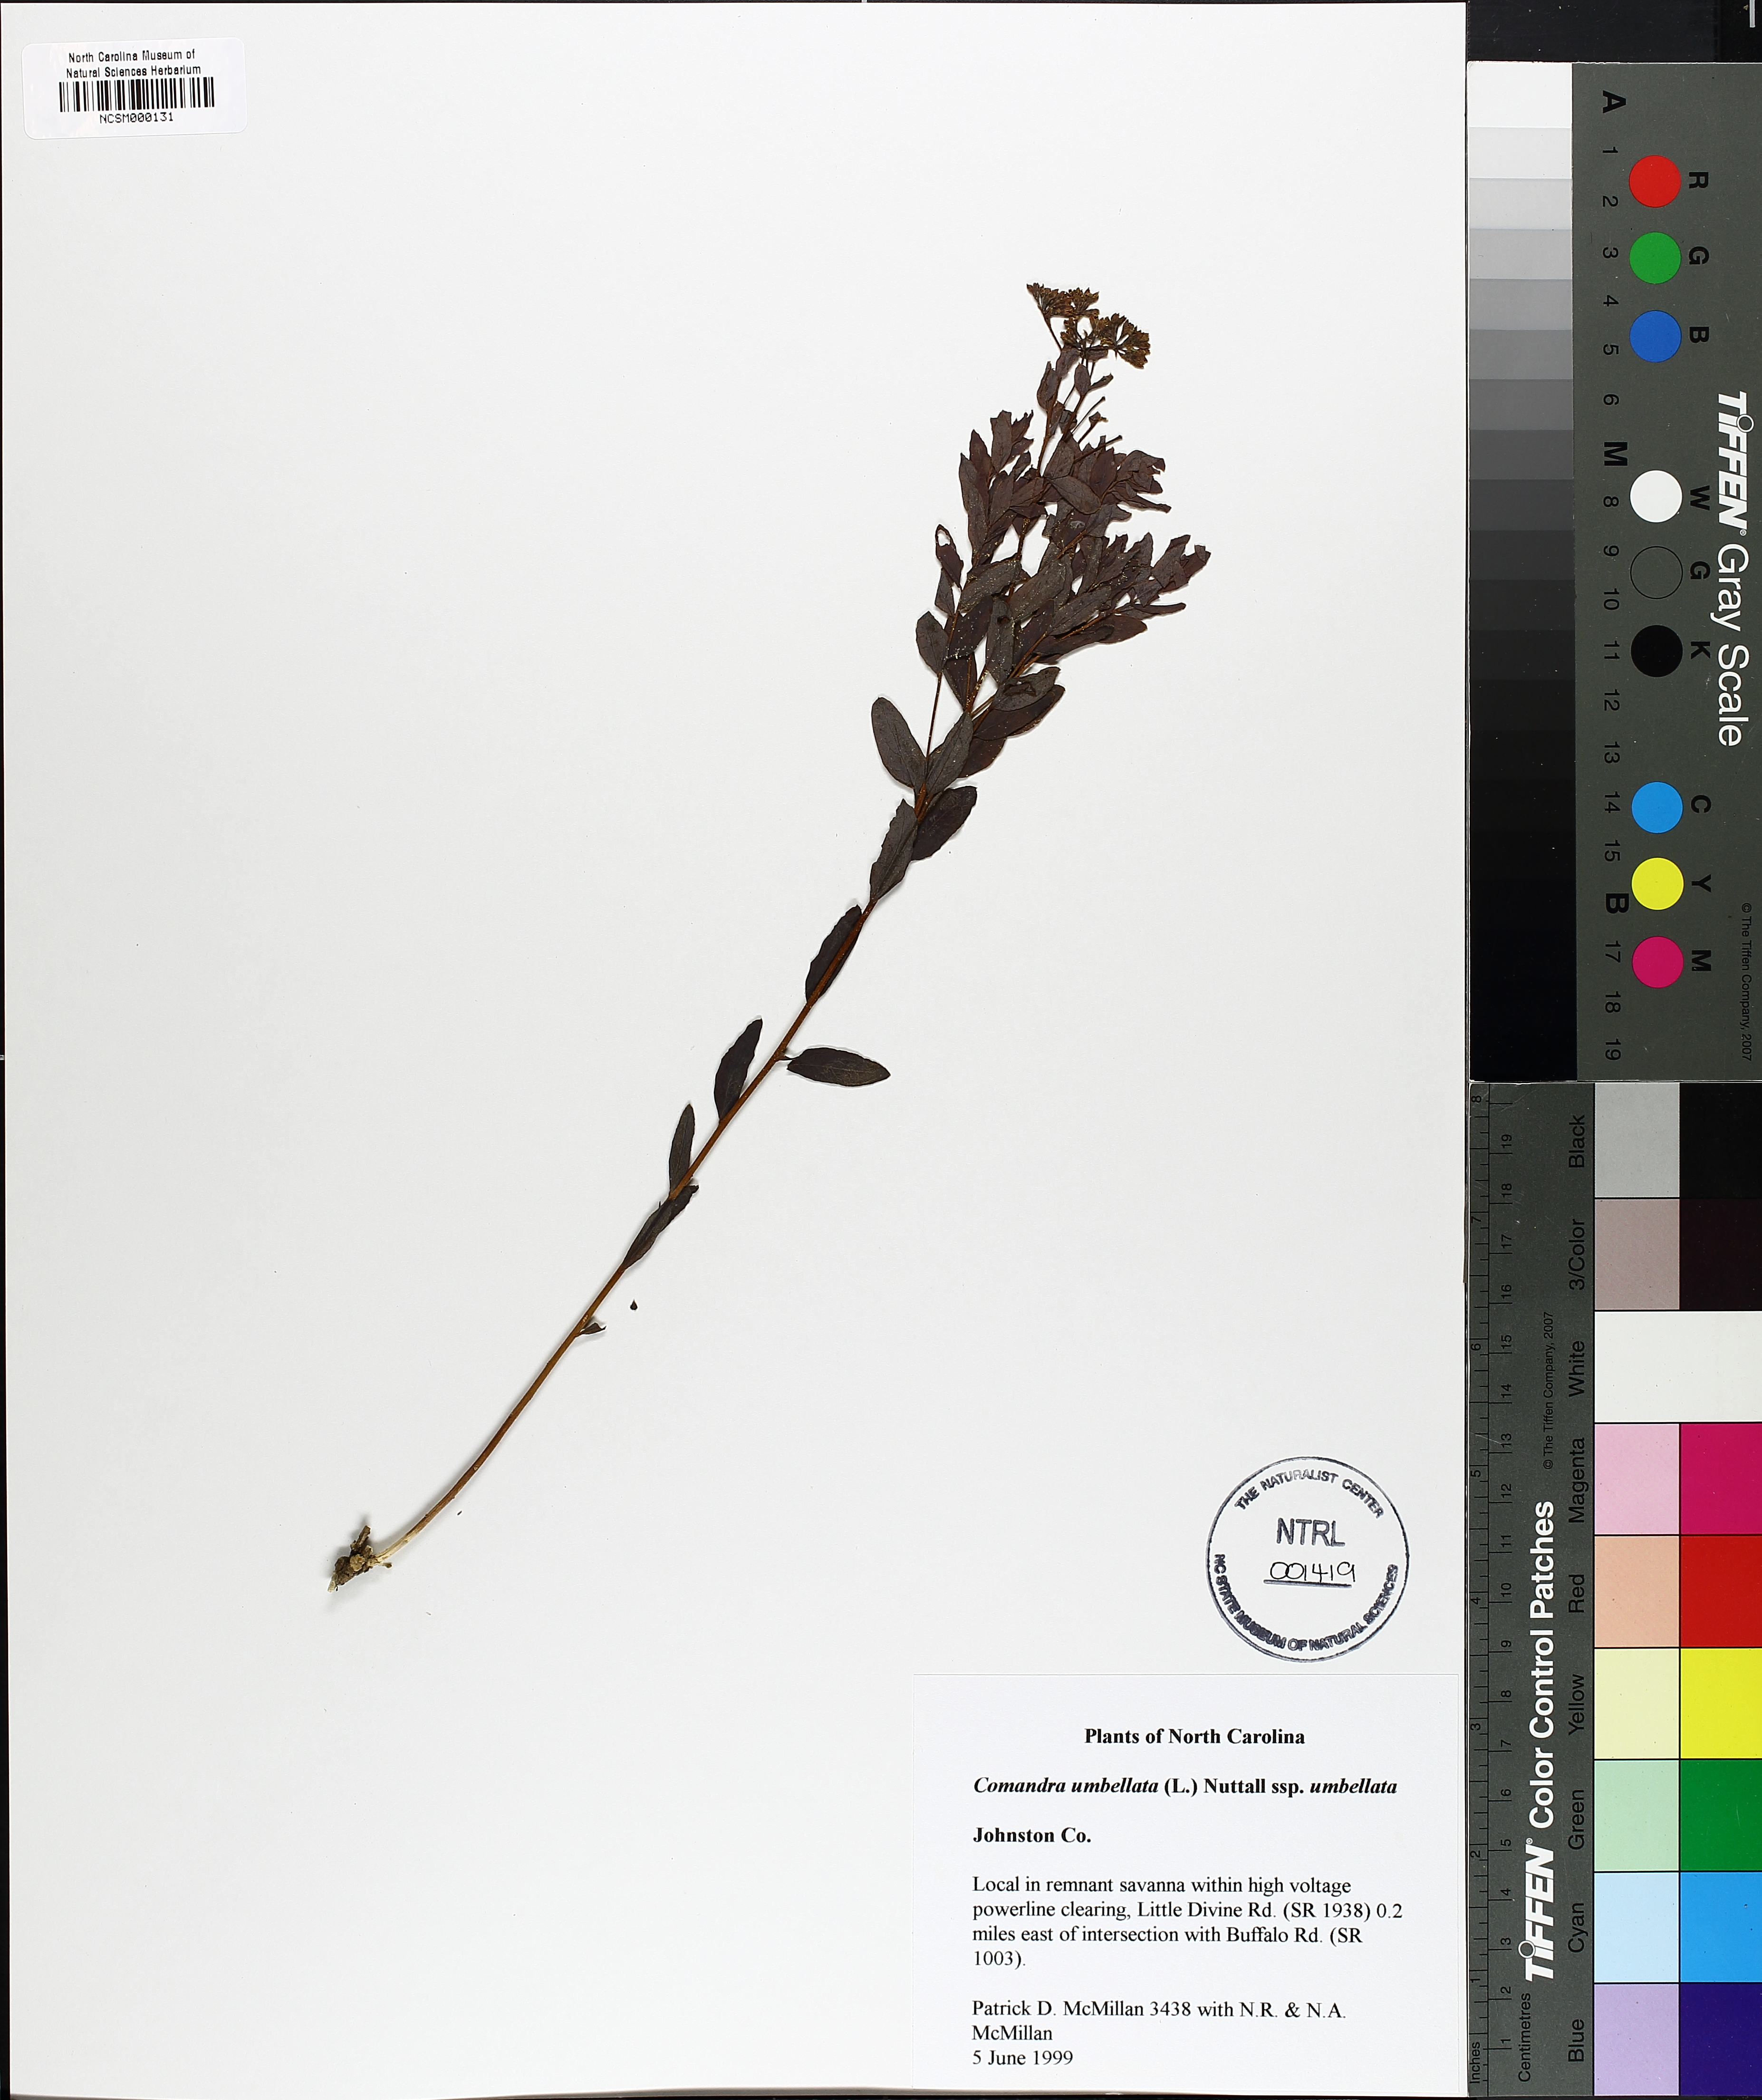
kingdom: Plantae
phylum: Tracheophyta
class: Magnoliopsida
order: Santalales
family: Comandraceae
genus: Comandra
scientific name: Comandra umbellata
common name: Bastard toadflax
